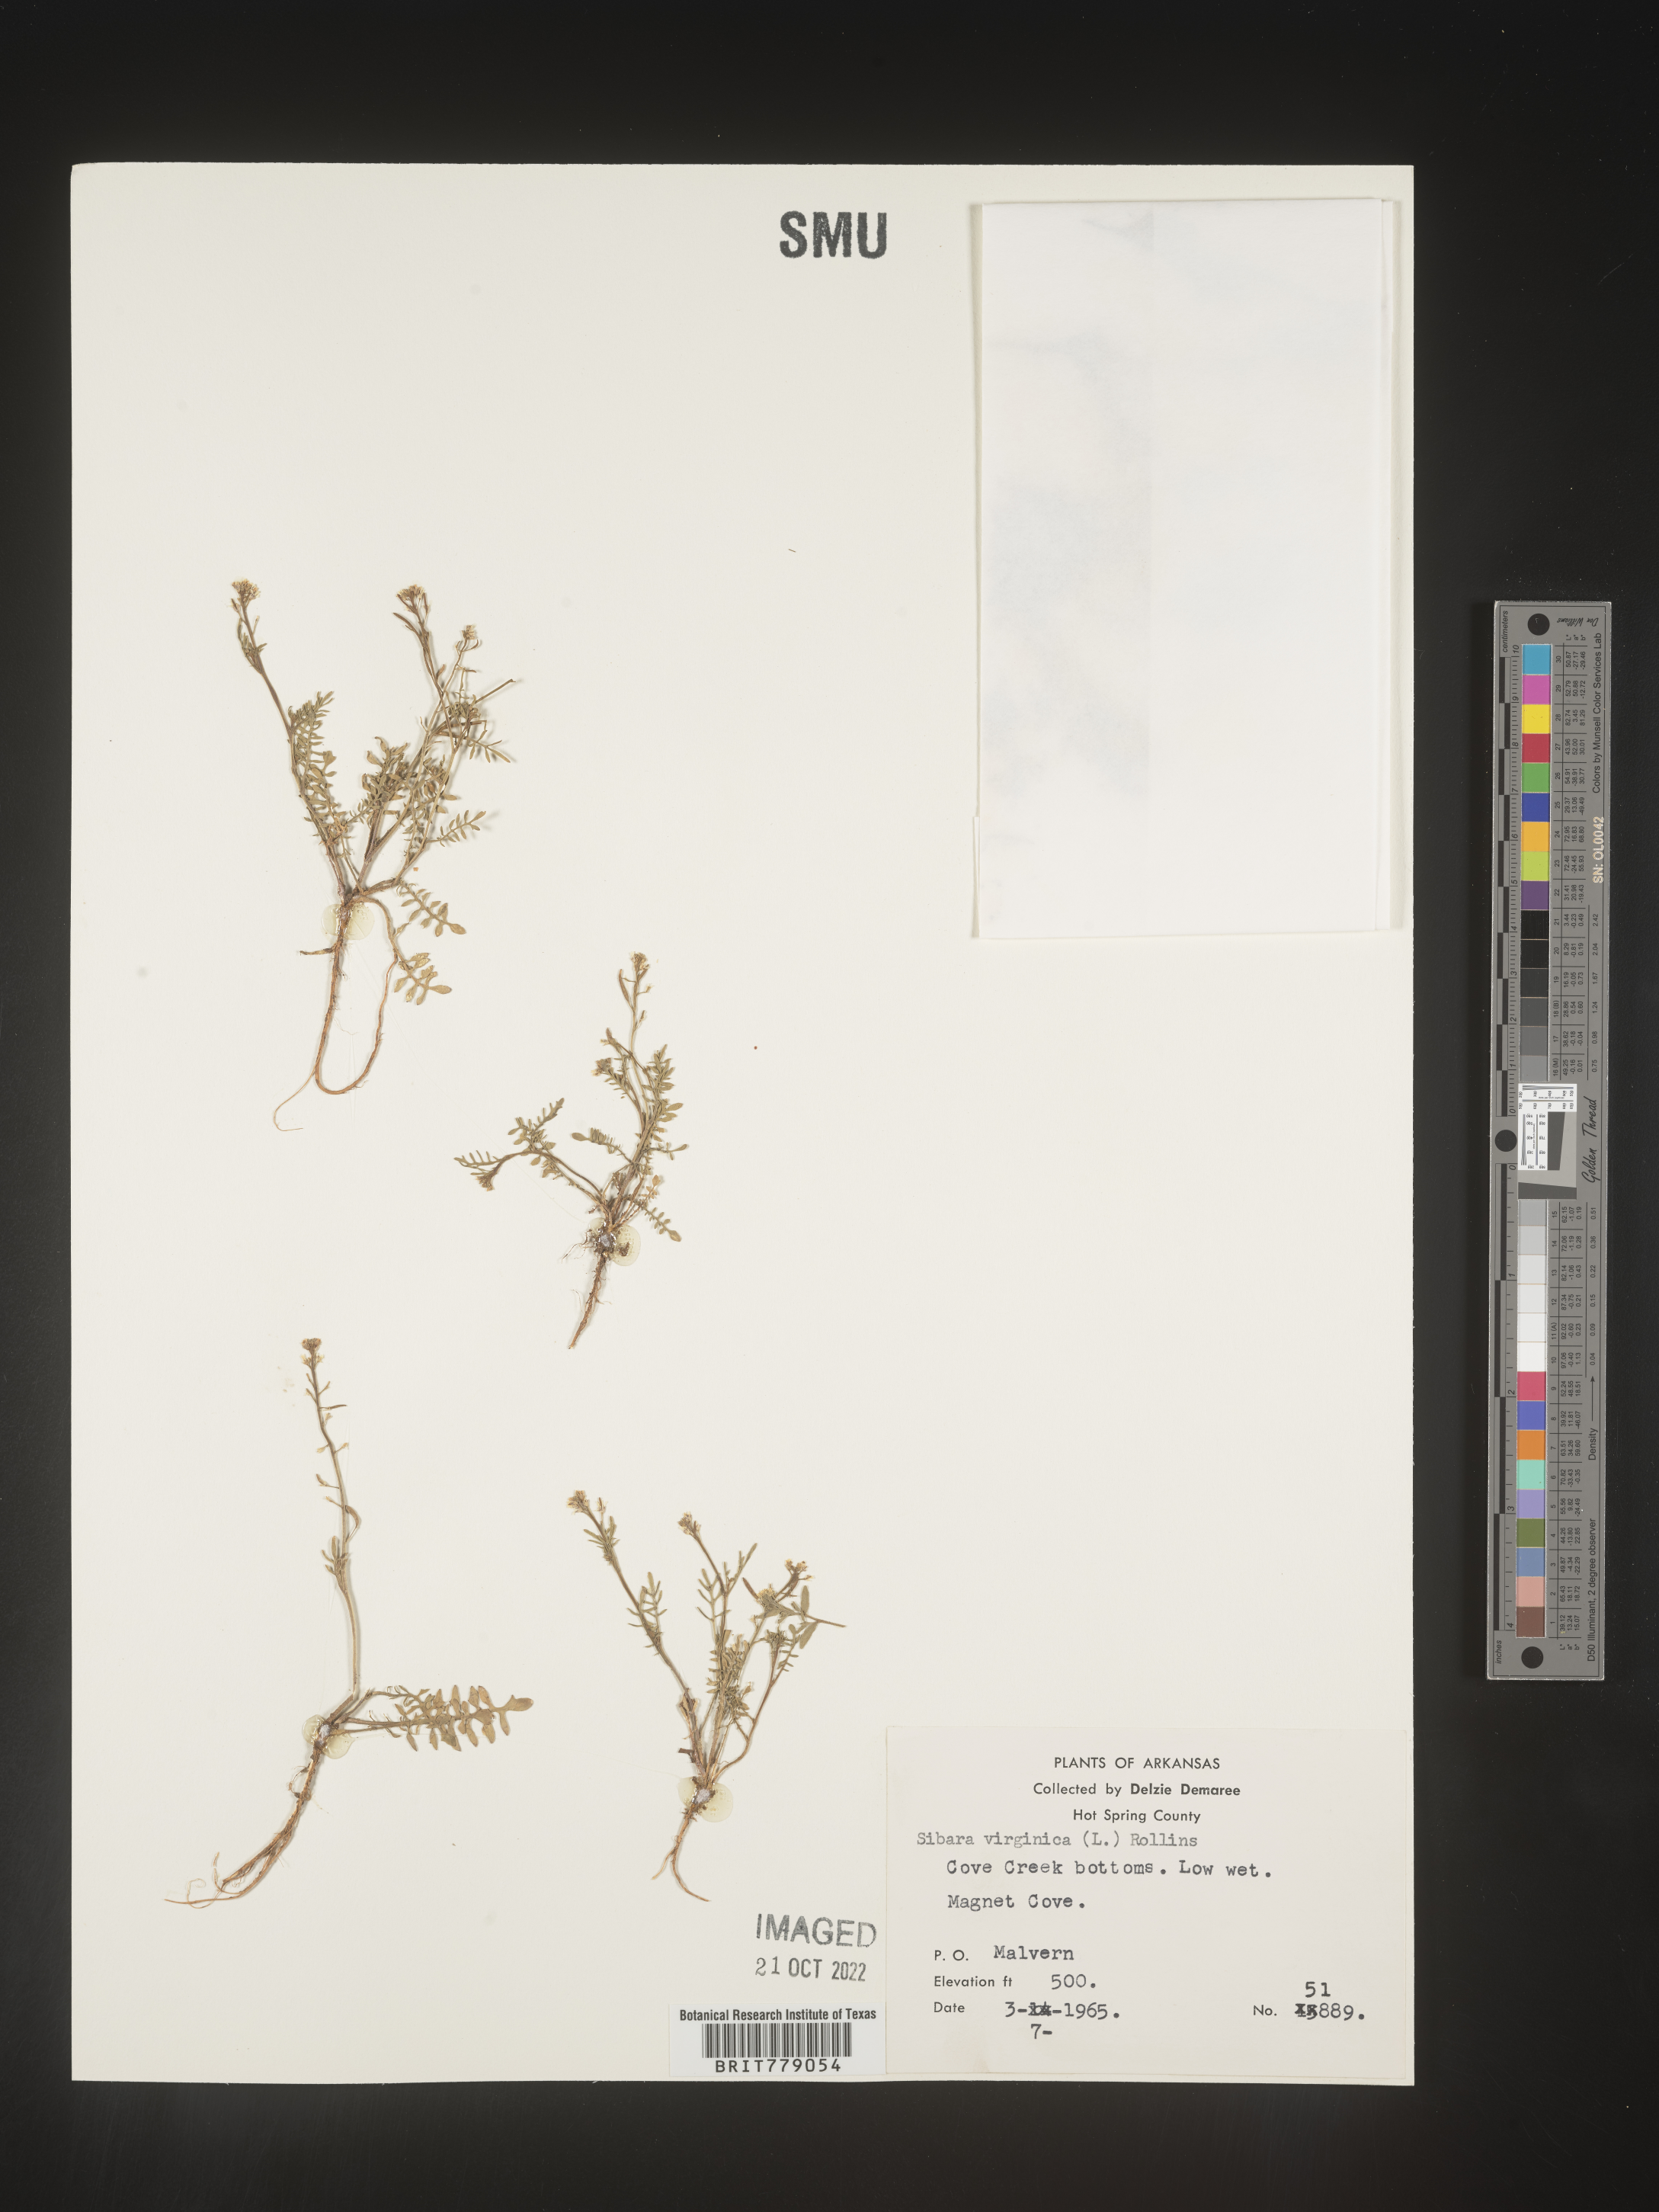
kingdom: Plantae
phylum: Tracheophyta
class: Magnoliopsida
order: Brassicales
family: Brassicaceae
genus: Sibara
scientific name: Sibara
